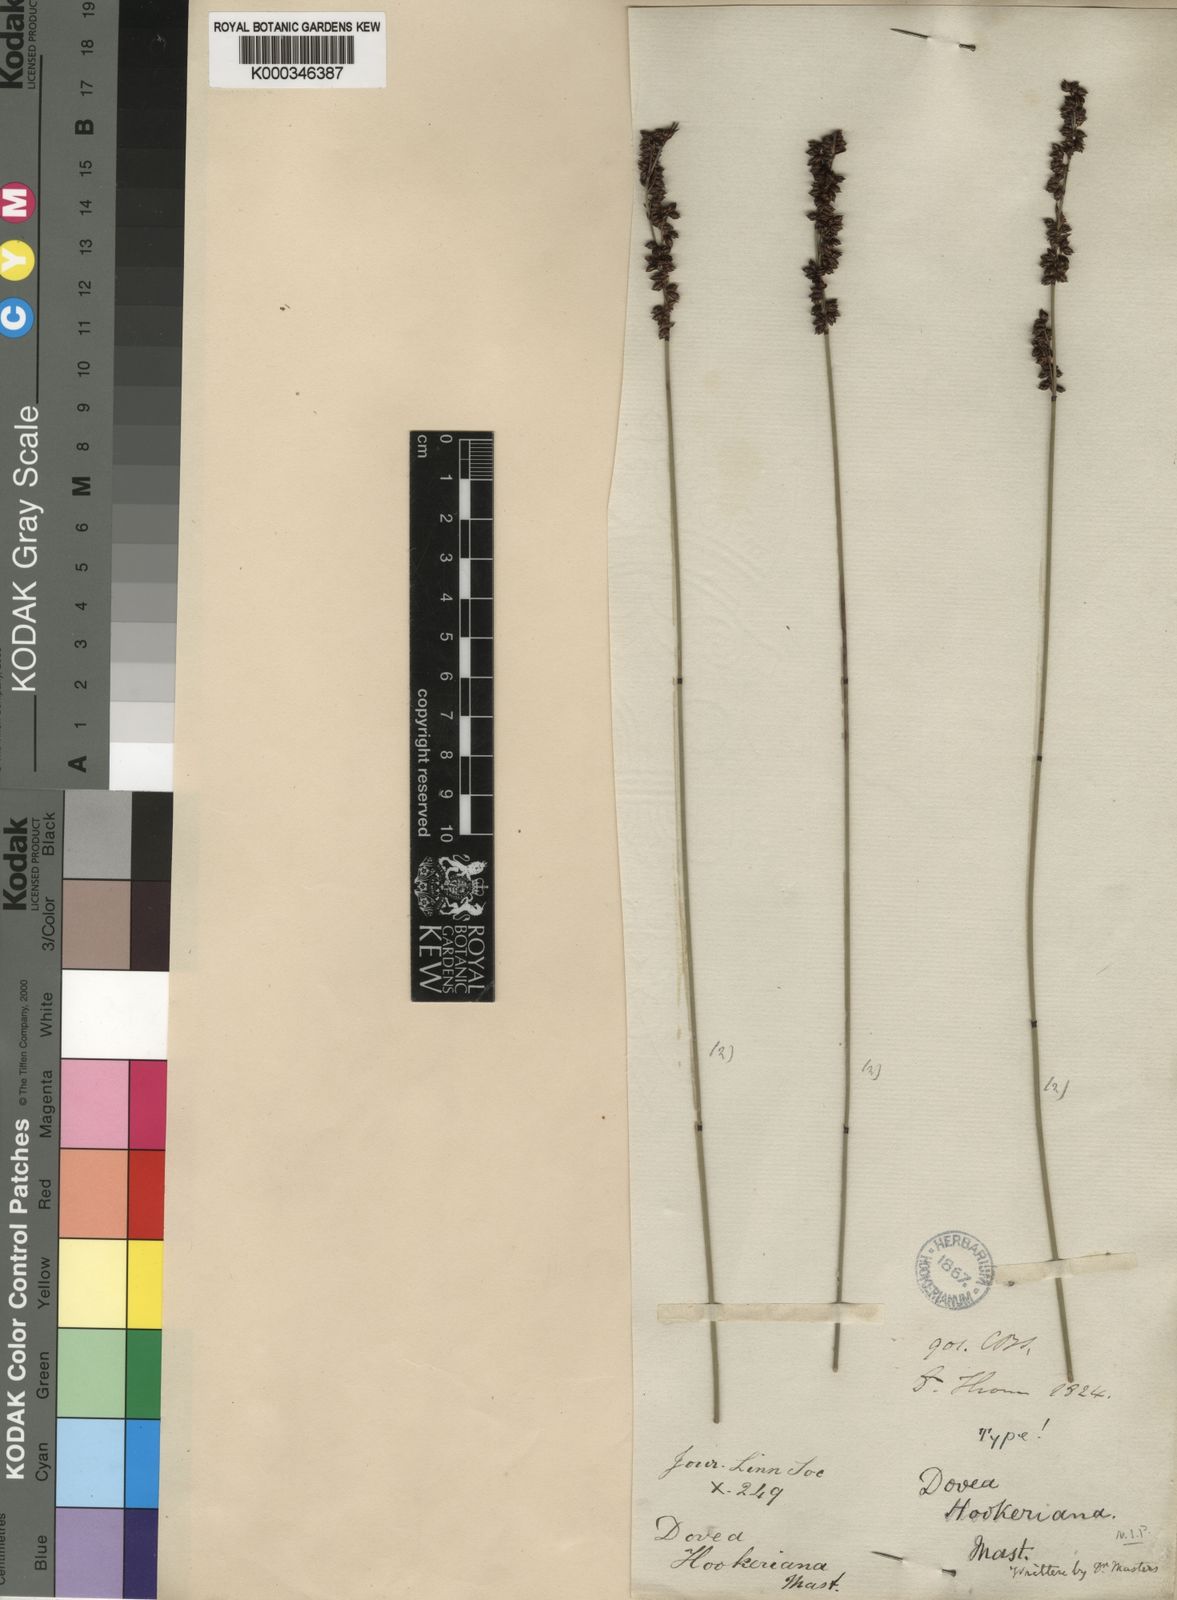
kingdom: Plantae
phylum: Tracheophyta
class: Liliopsida
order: Poales
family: Restionaceae
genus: Elegia
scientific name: Elegia hookeriana
